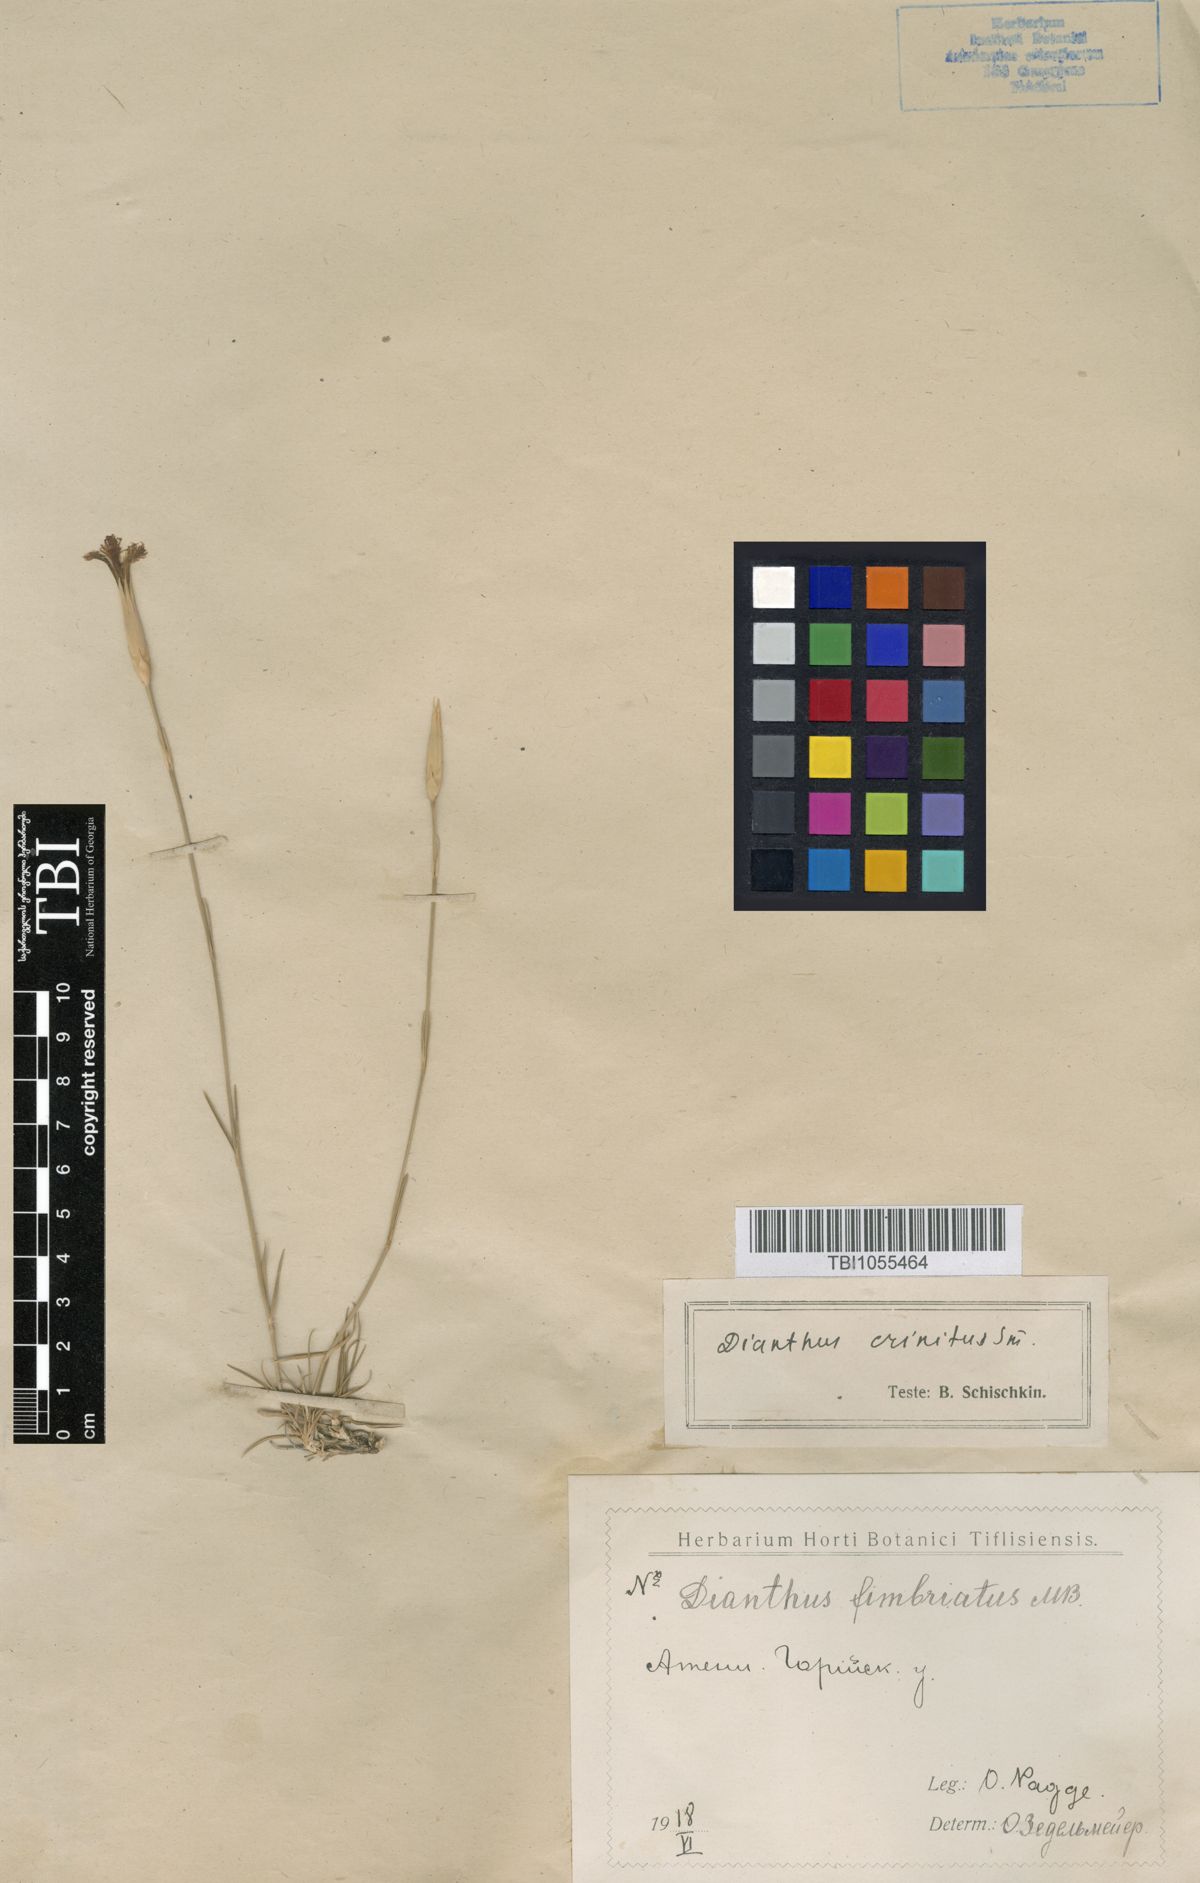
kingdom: Plantae
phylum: Tracheophyta
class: Magnoliopsida
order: Caryophyllales
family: Caryophyllaceae
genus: Dianthus
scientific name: Dianthus crinitus
